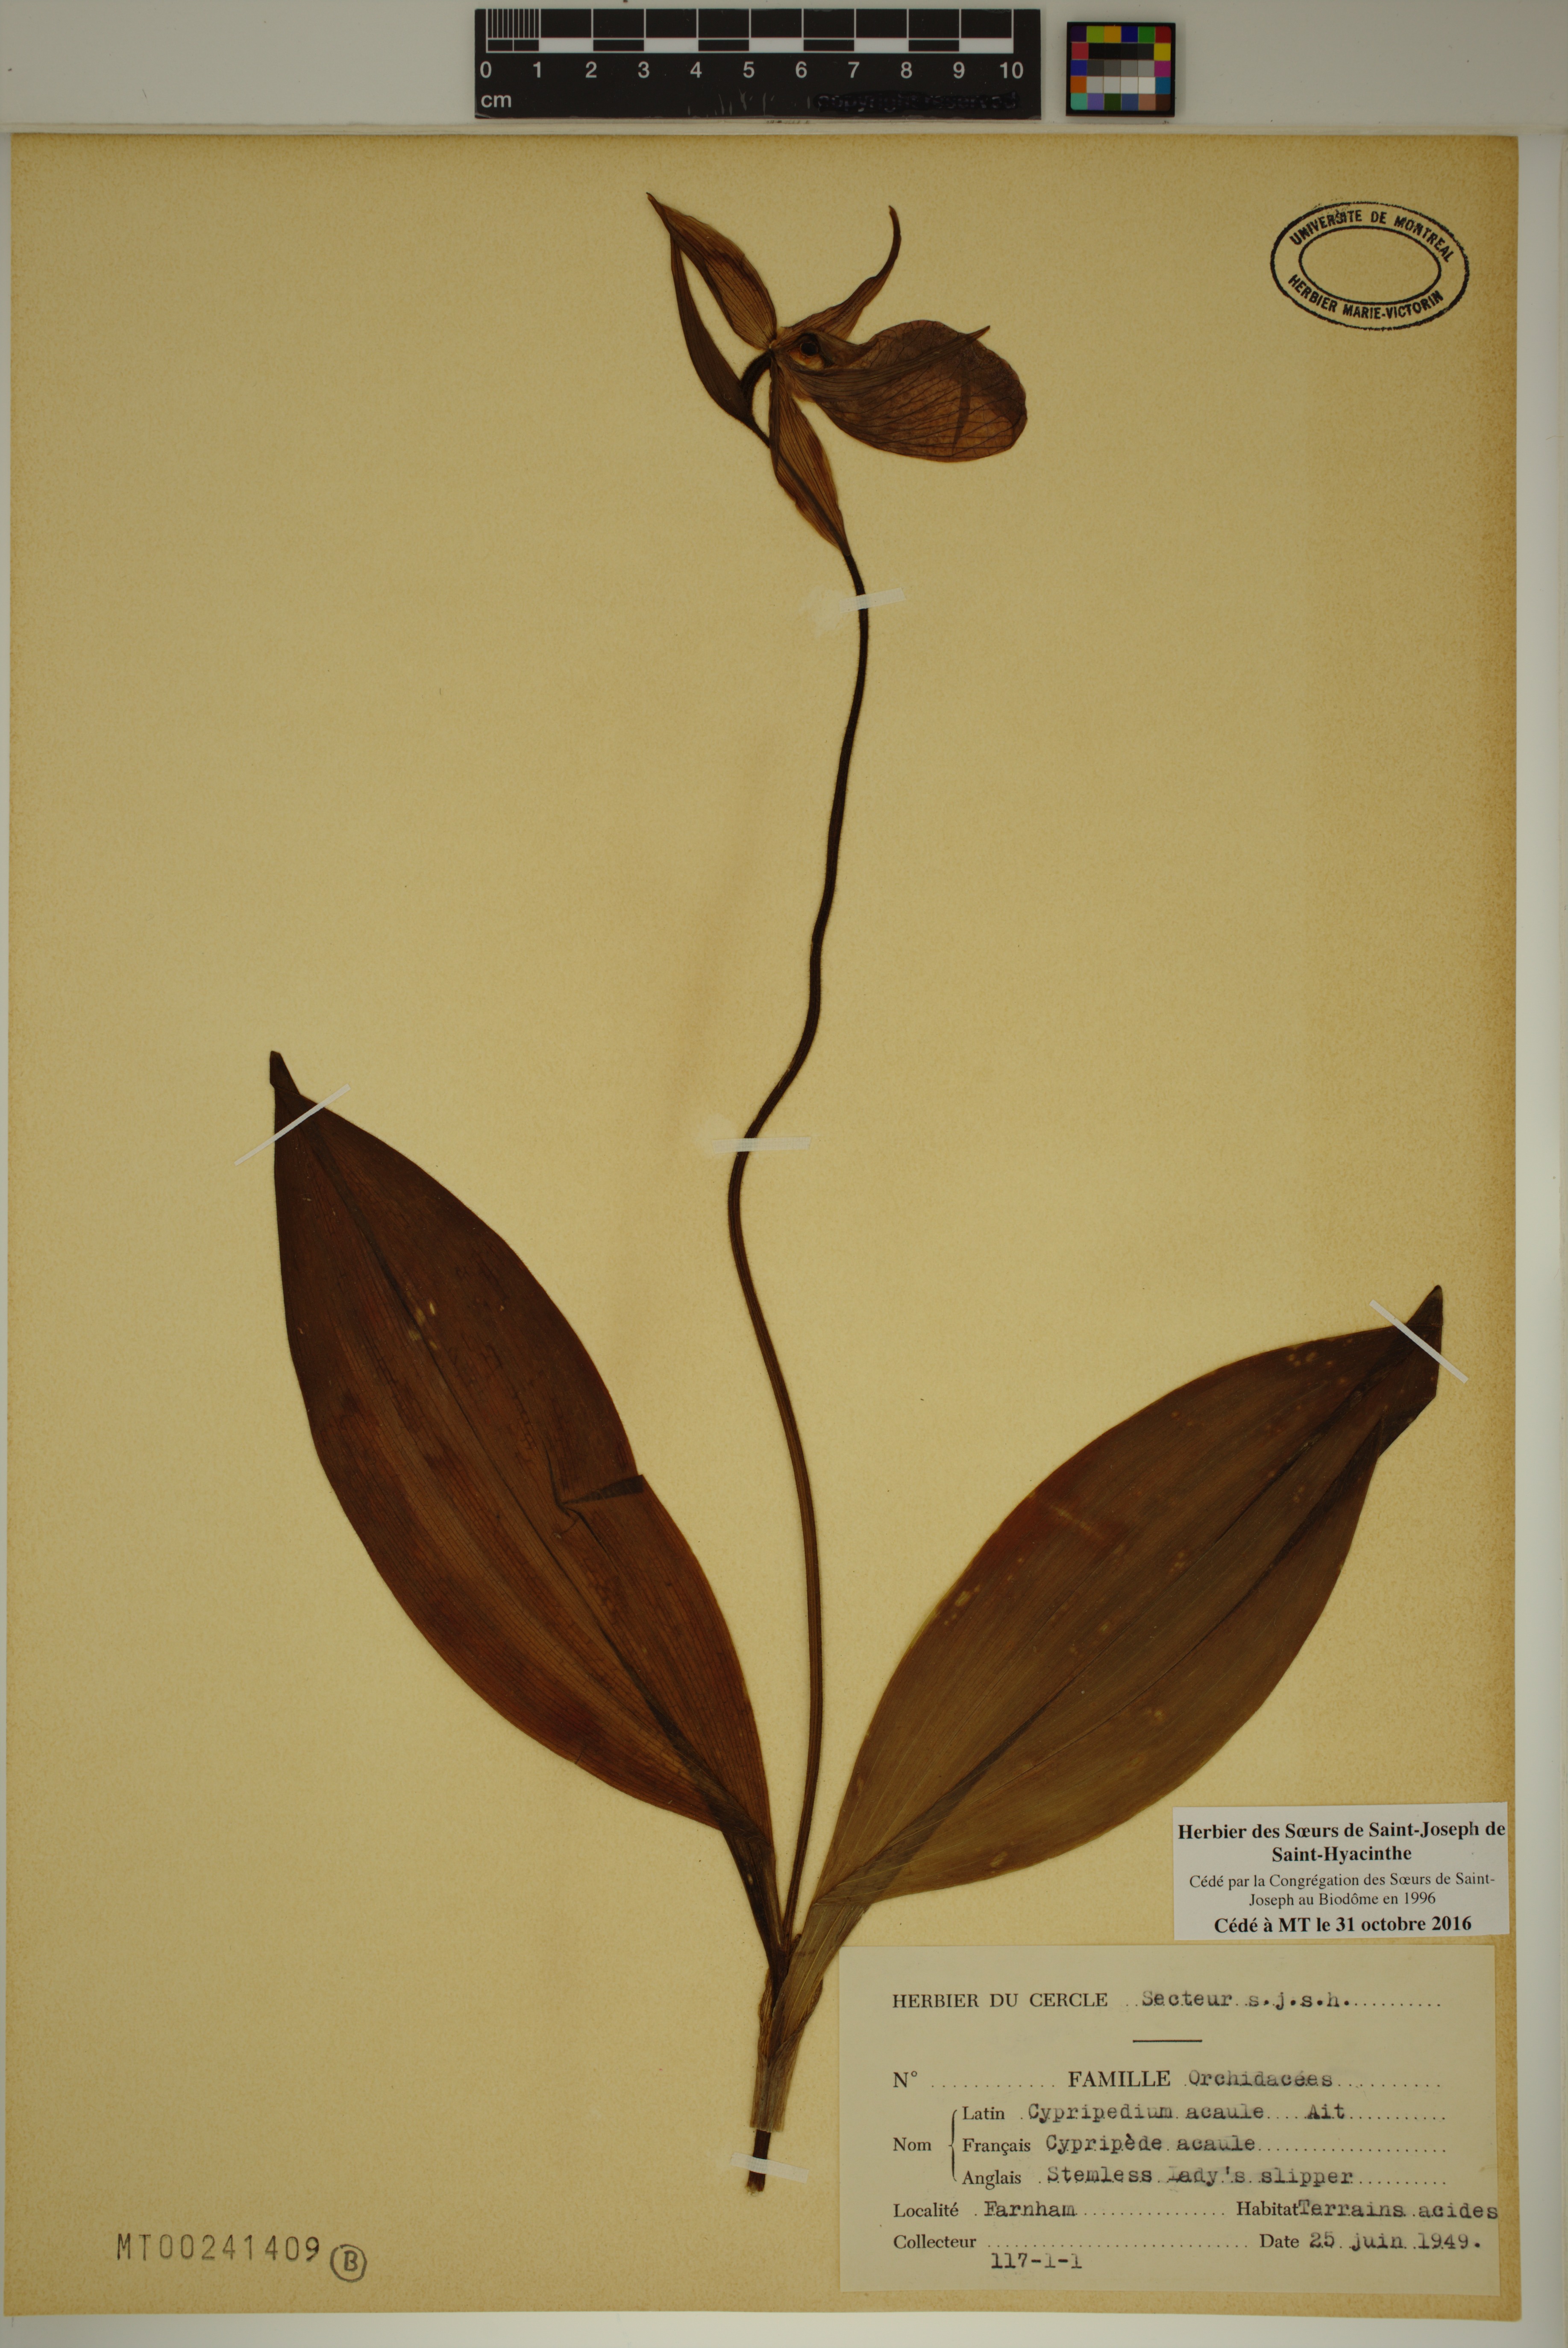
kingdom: Plantae
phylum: Tracheophyta
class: Liliopsida
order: Asparagales
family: Orchidaceae
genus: Cypripedium
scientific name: Cypripedium acaule
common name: Pink lady's-slipper
